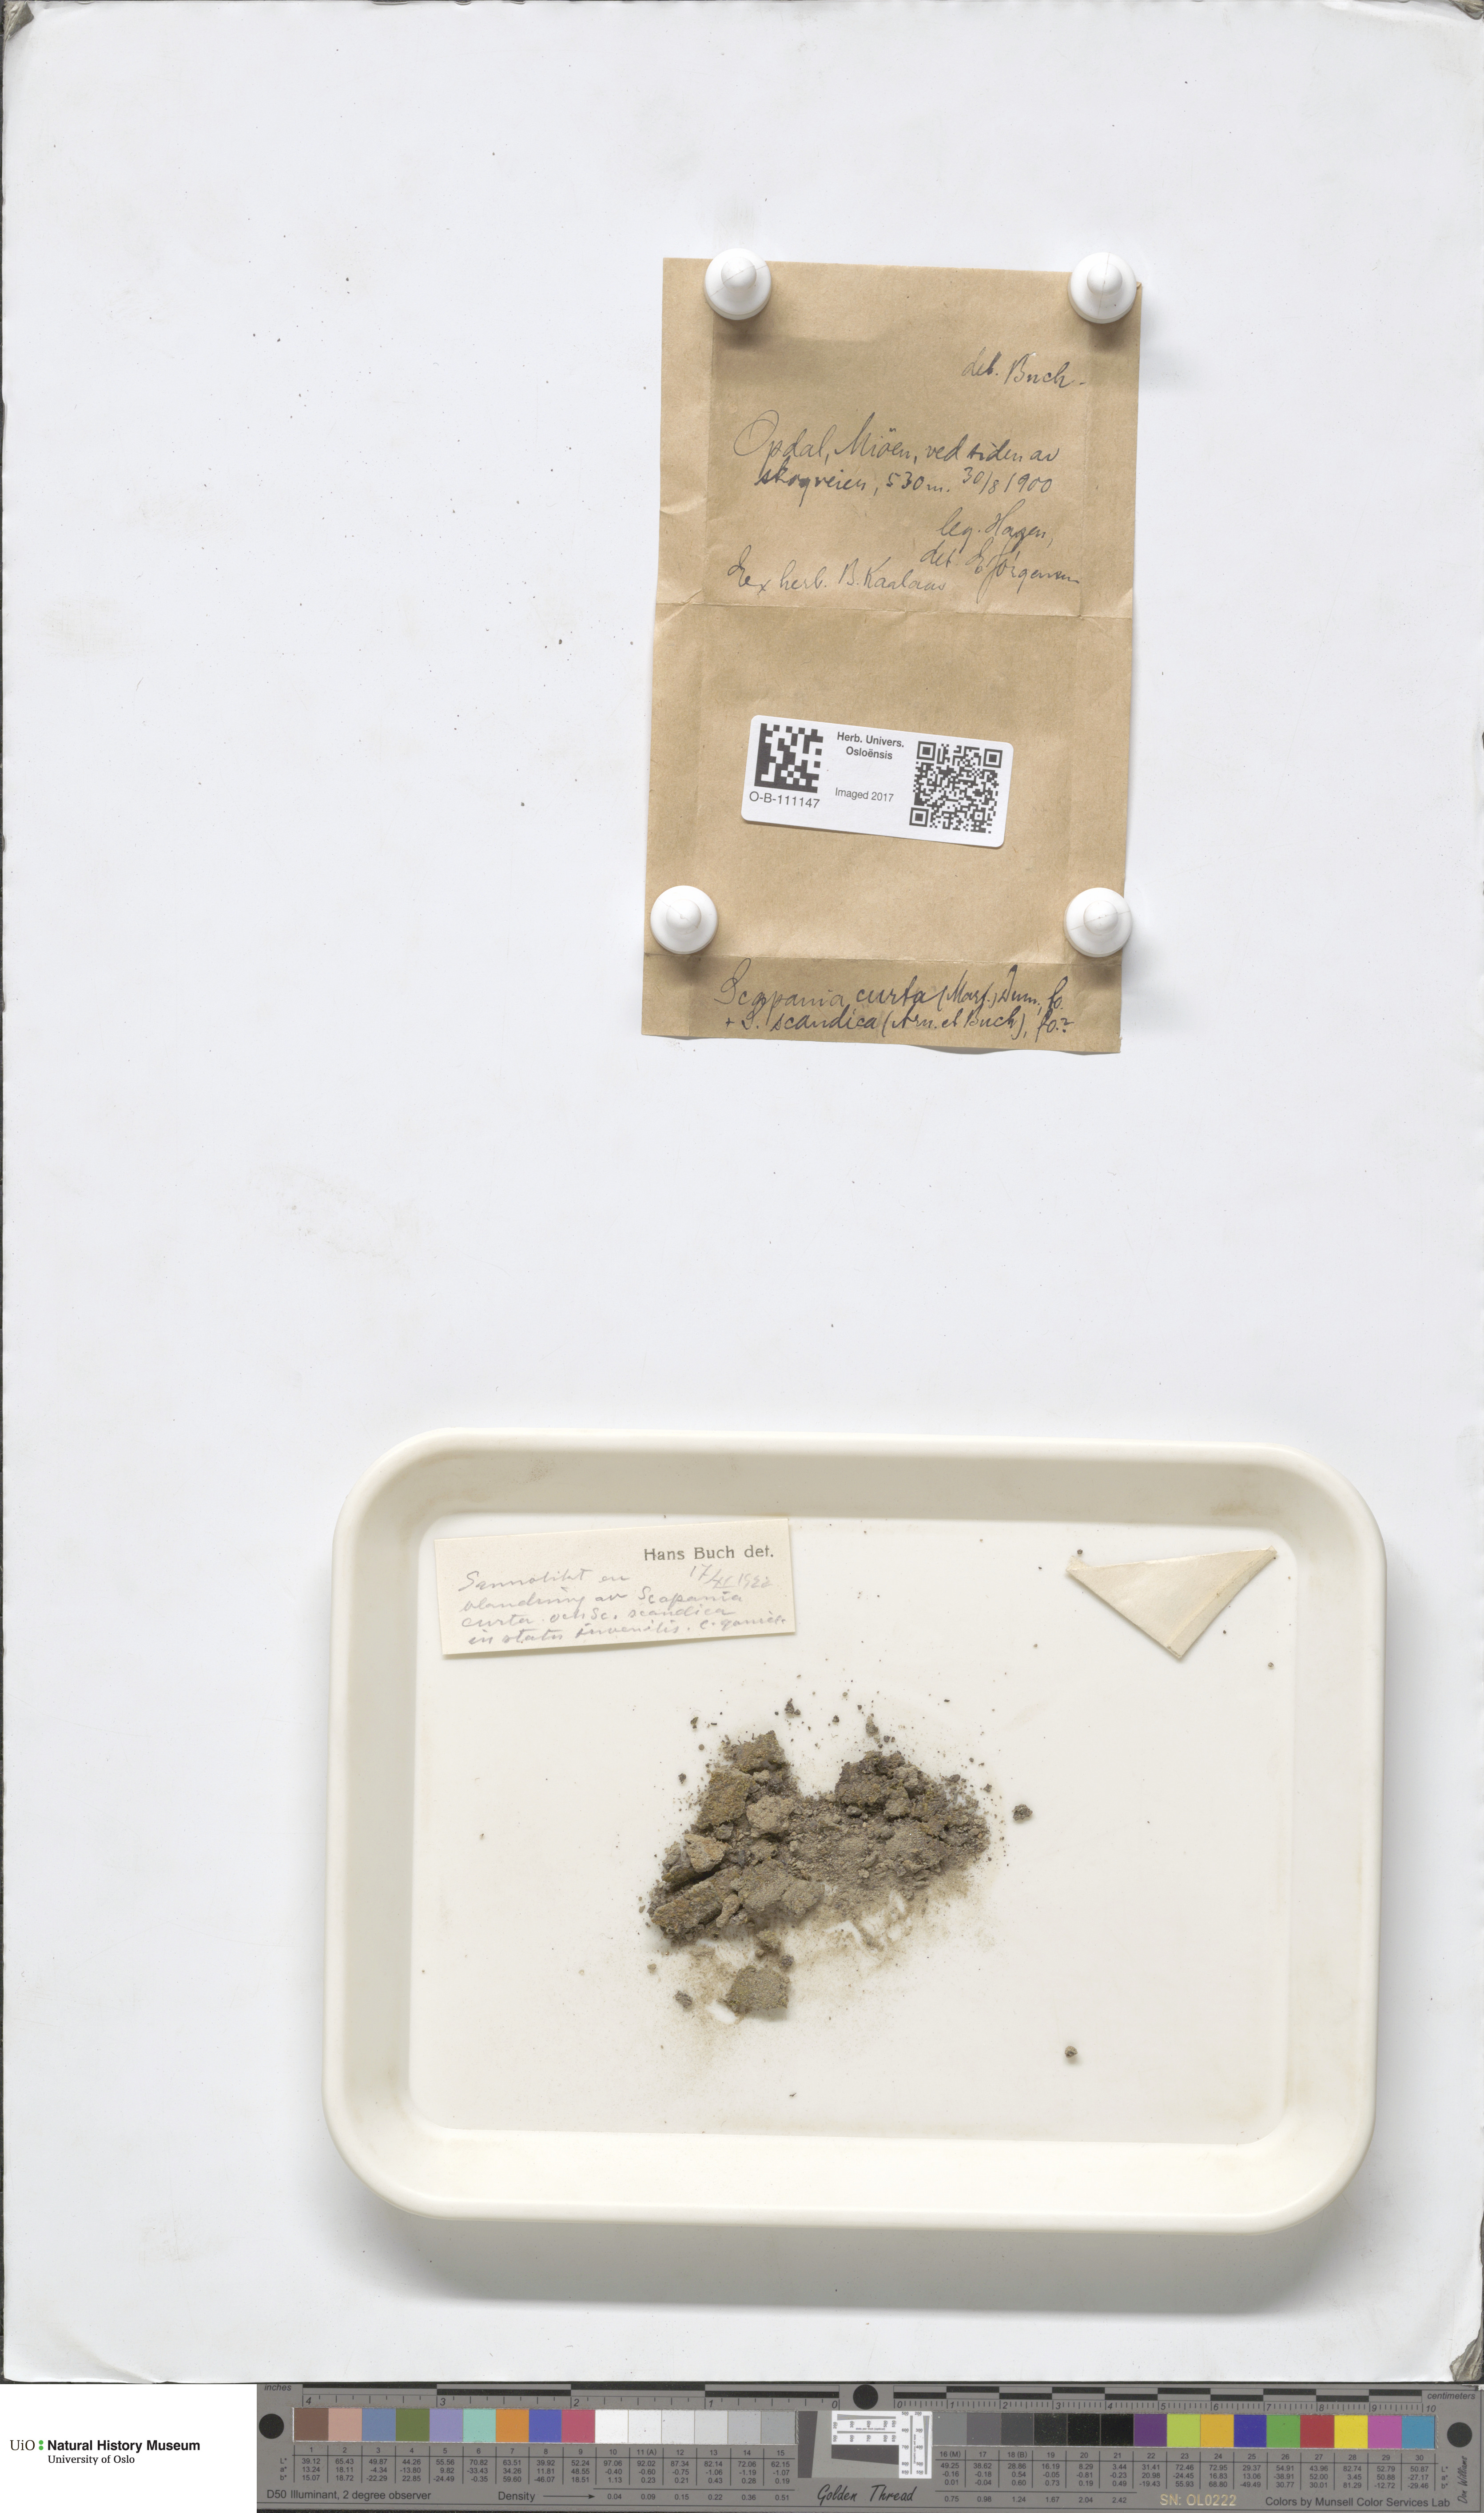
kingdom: Plantae
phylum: Marchantiophyta
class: Jungermanniopsida
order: Jungermanniales
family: Scapaniaceae
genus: Scapania
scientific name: Scapania curta
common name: Least earwort
